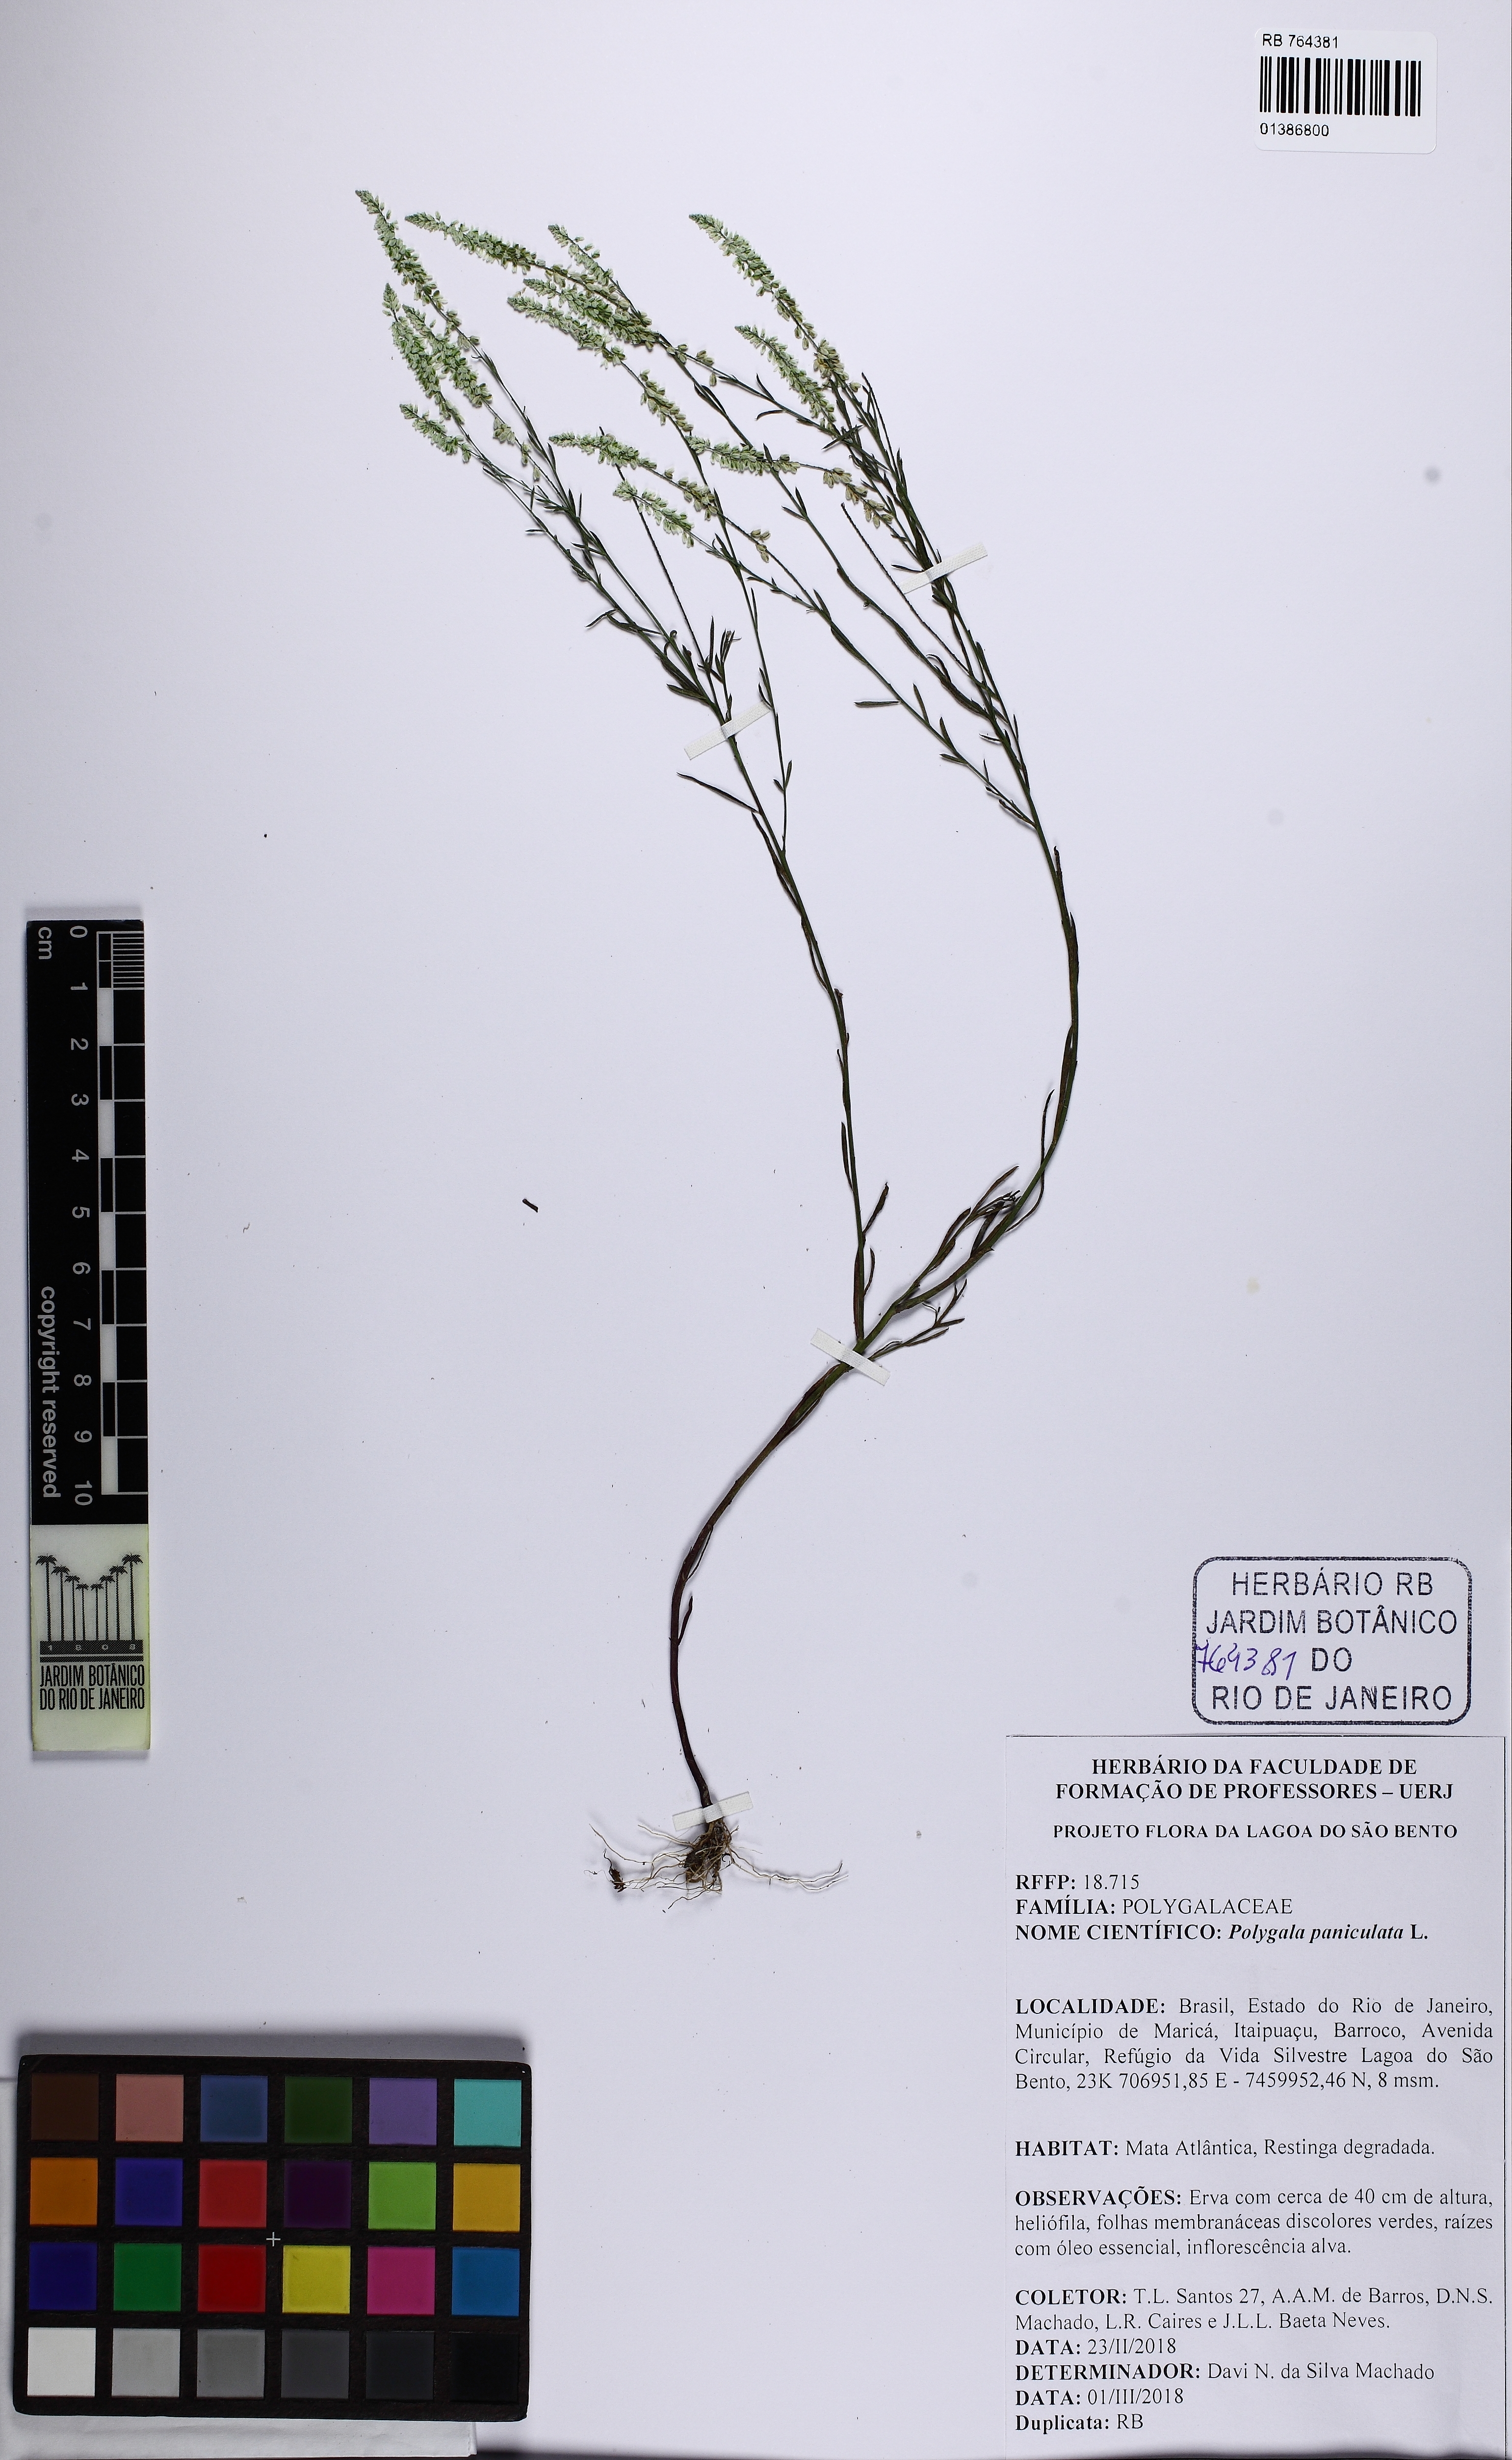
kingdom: Plantae
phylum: Tracheophyta
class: Magnoliopsida
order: Fabales
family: Polygalaceae
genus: Polygala
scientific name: Polygala paniculata
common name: Orosne
